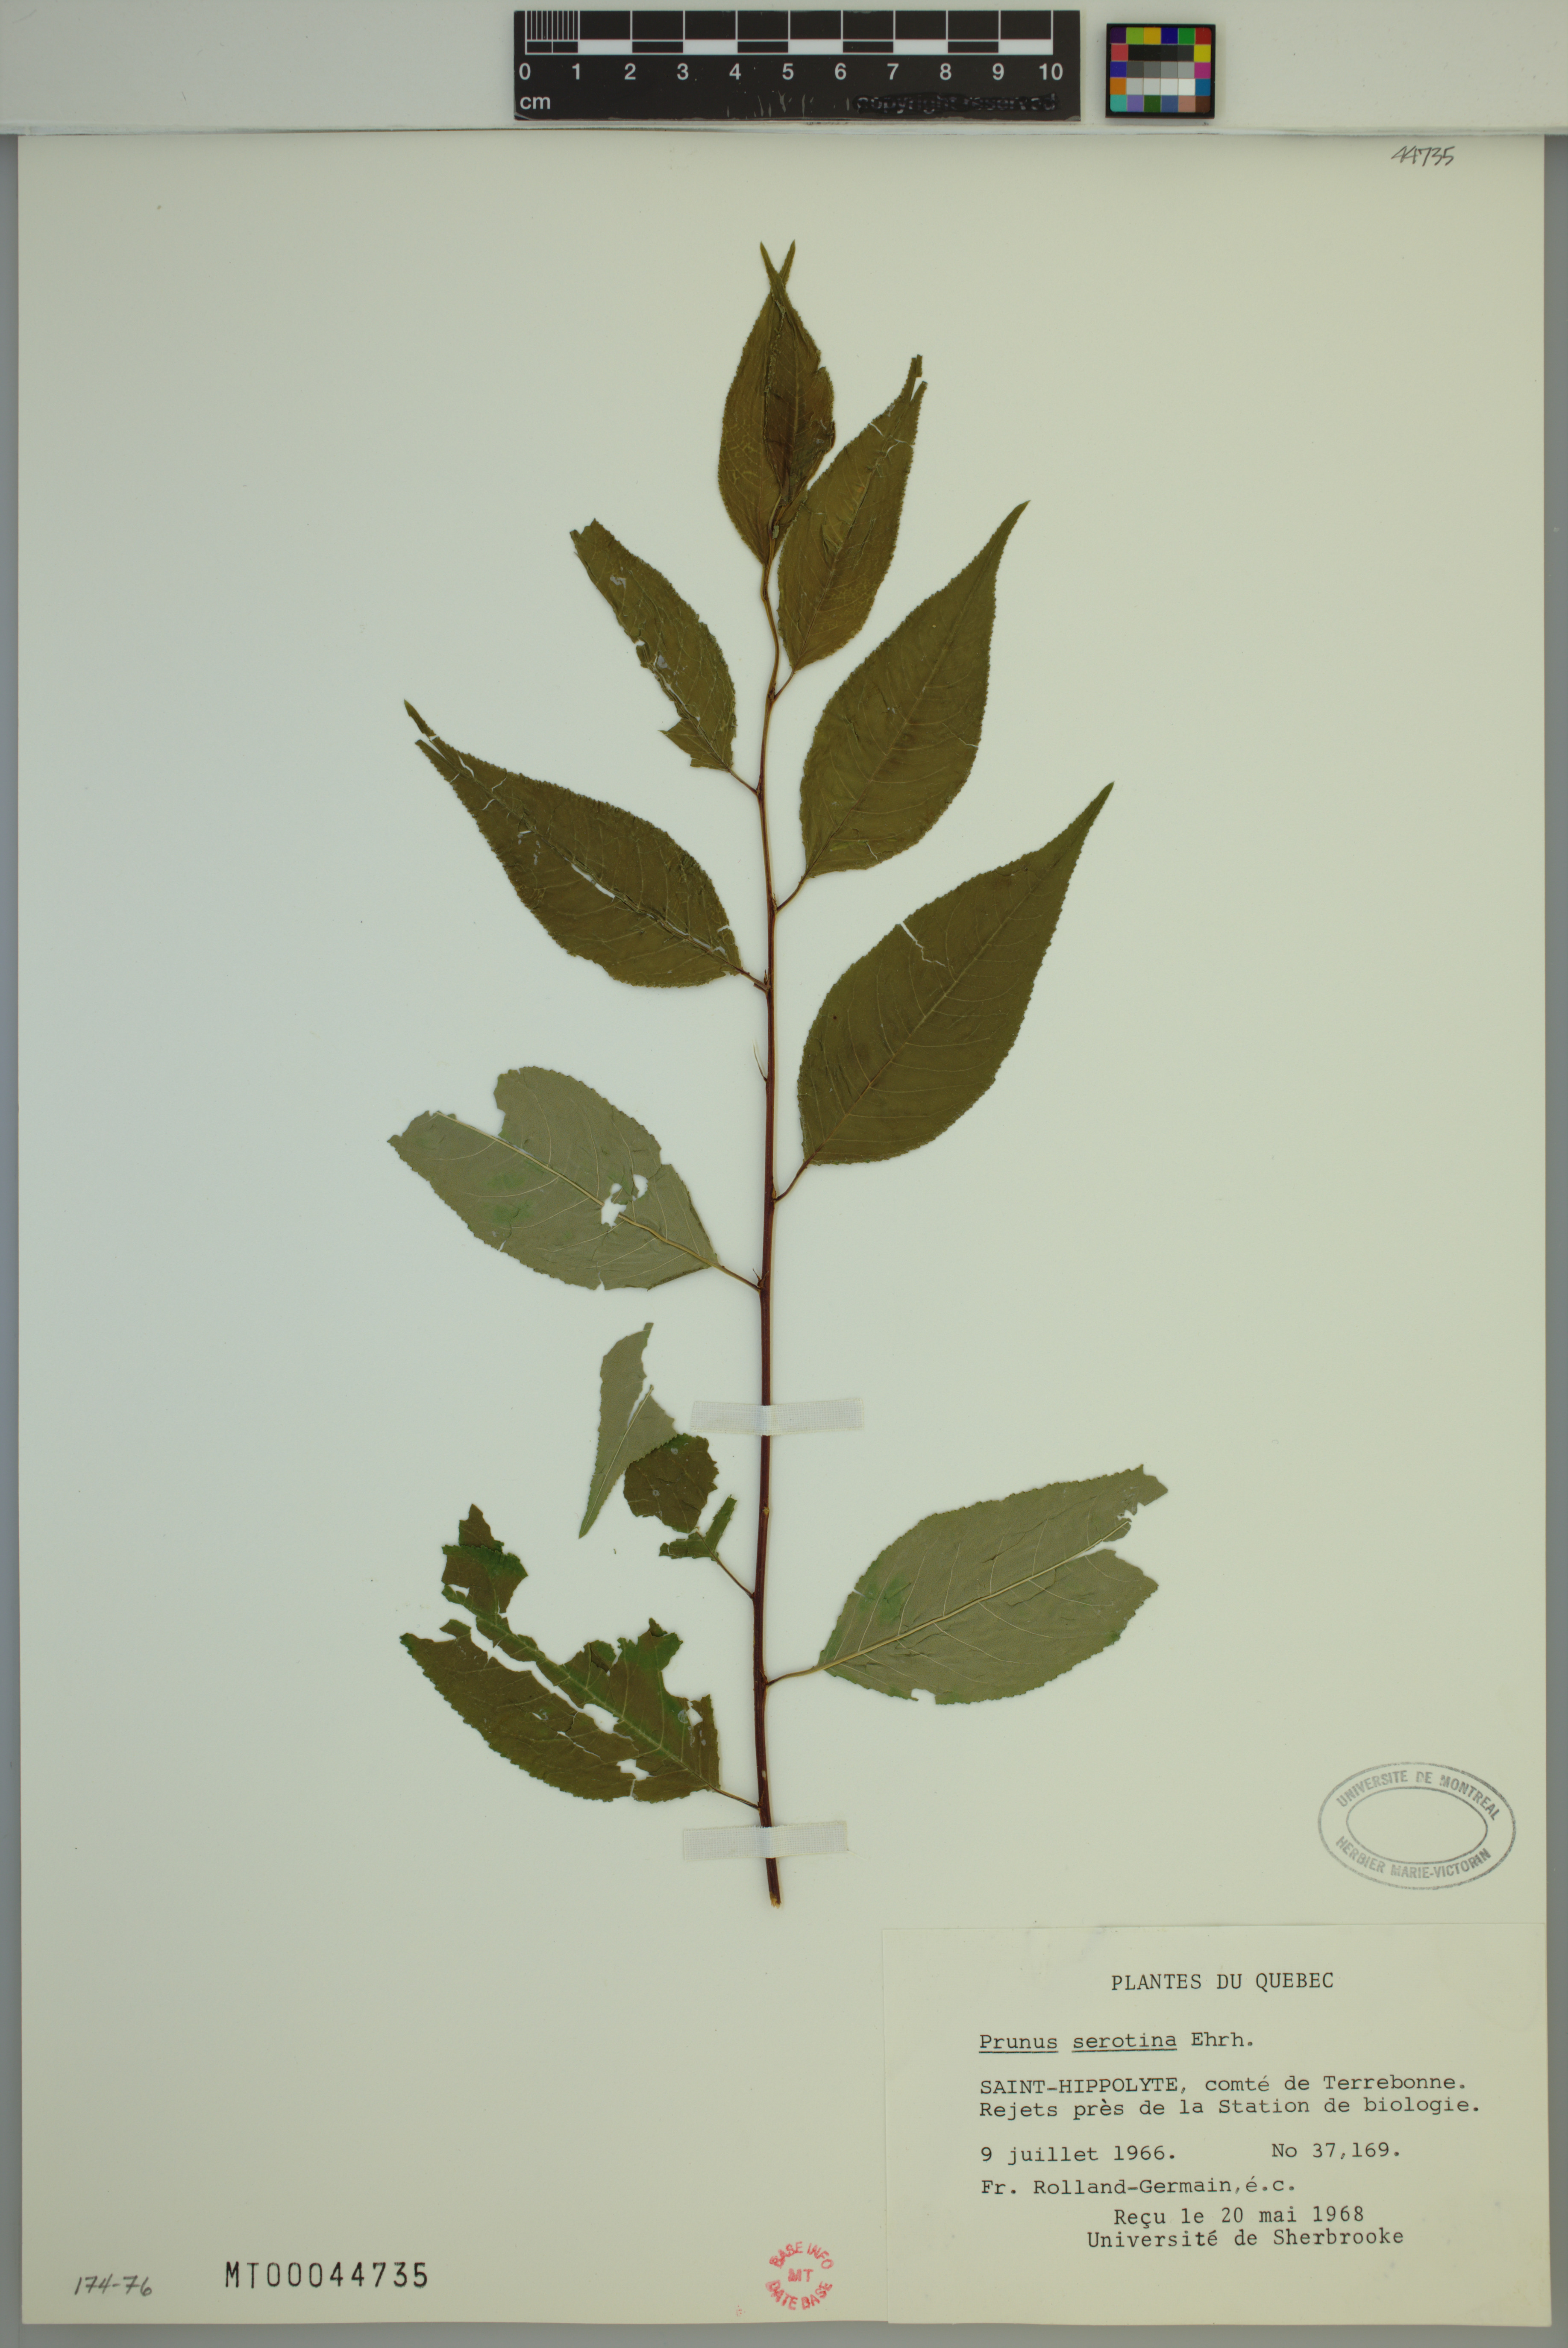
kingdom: Plantae
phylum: Tracheophyta
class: Magnoliopsida
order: Rosales
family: Rosaceae
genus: Prunus
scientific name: Prunus serotina
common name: Black cherry
